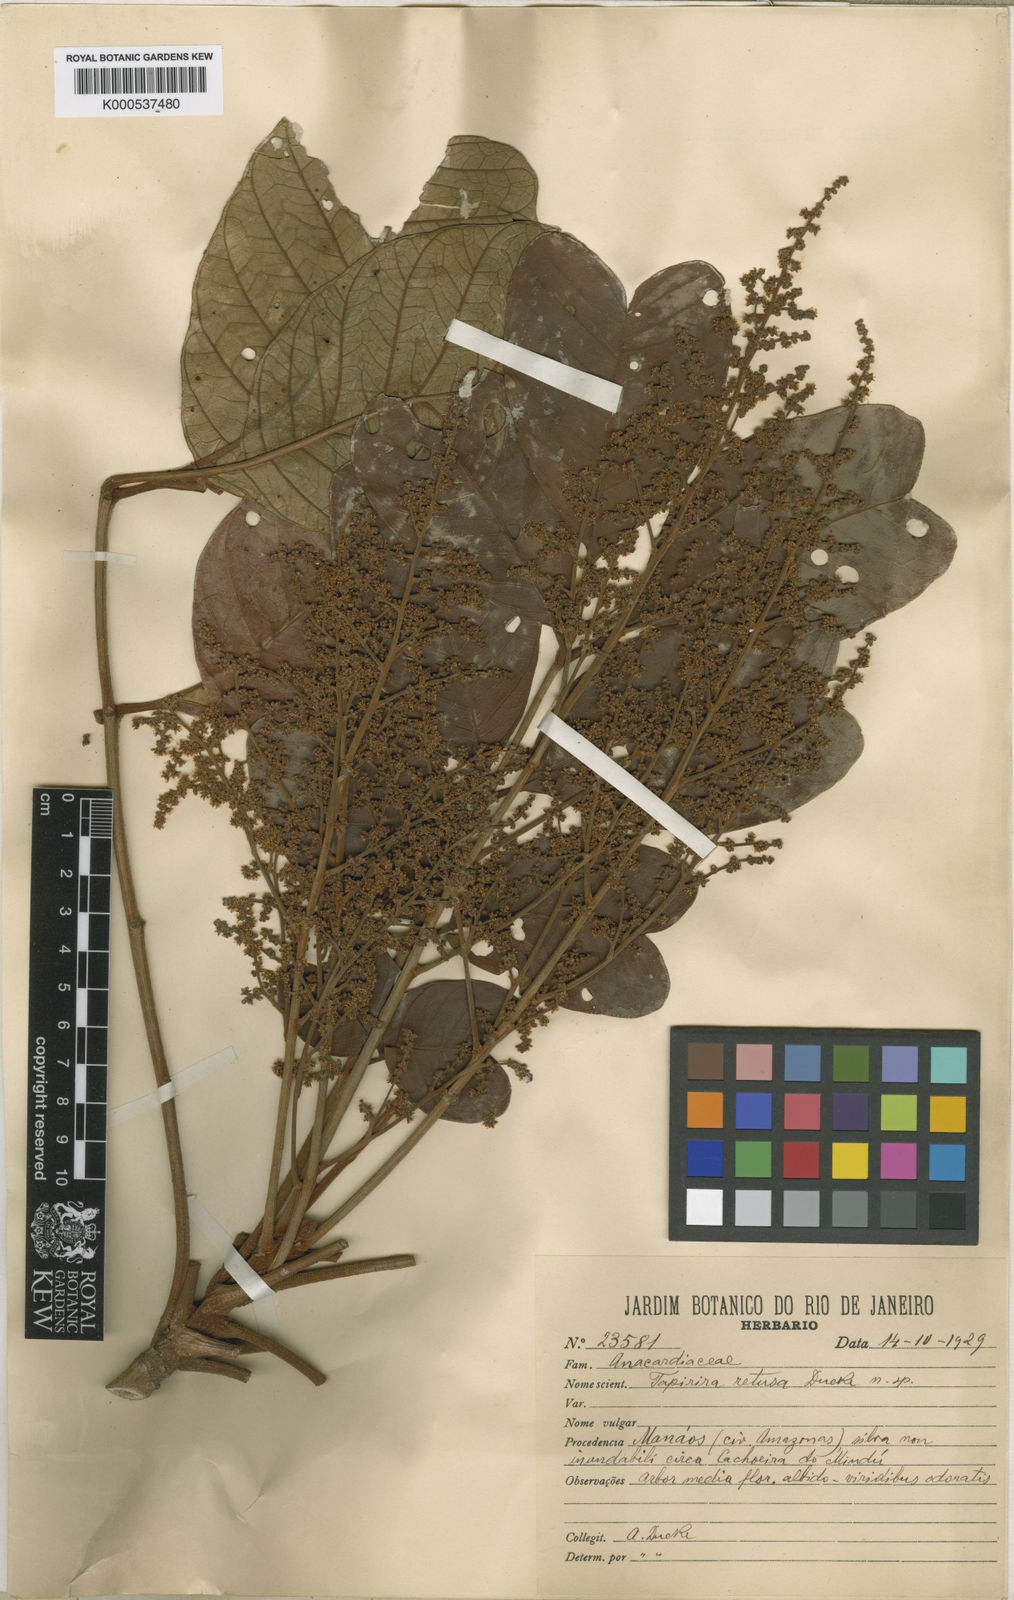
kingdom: Plantae
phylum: Tracheophyta
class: Magnoliopsida
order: Sapindales
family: Anacardiaceae
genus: Tapirira
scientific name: Tapirira retusa
